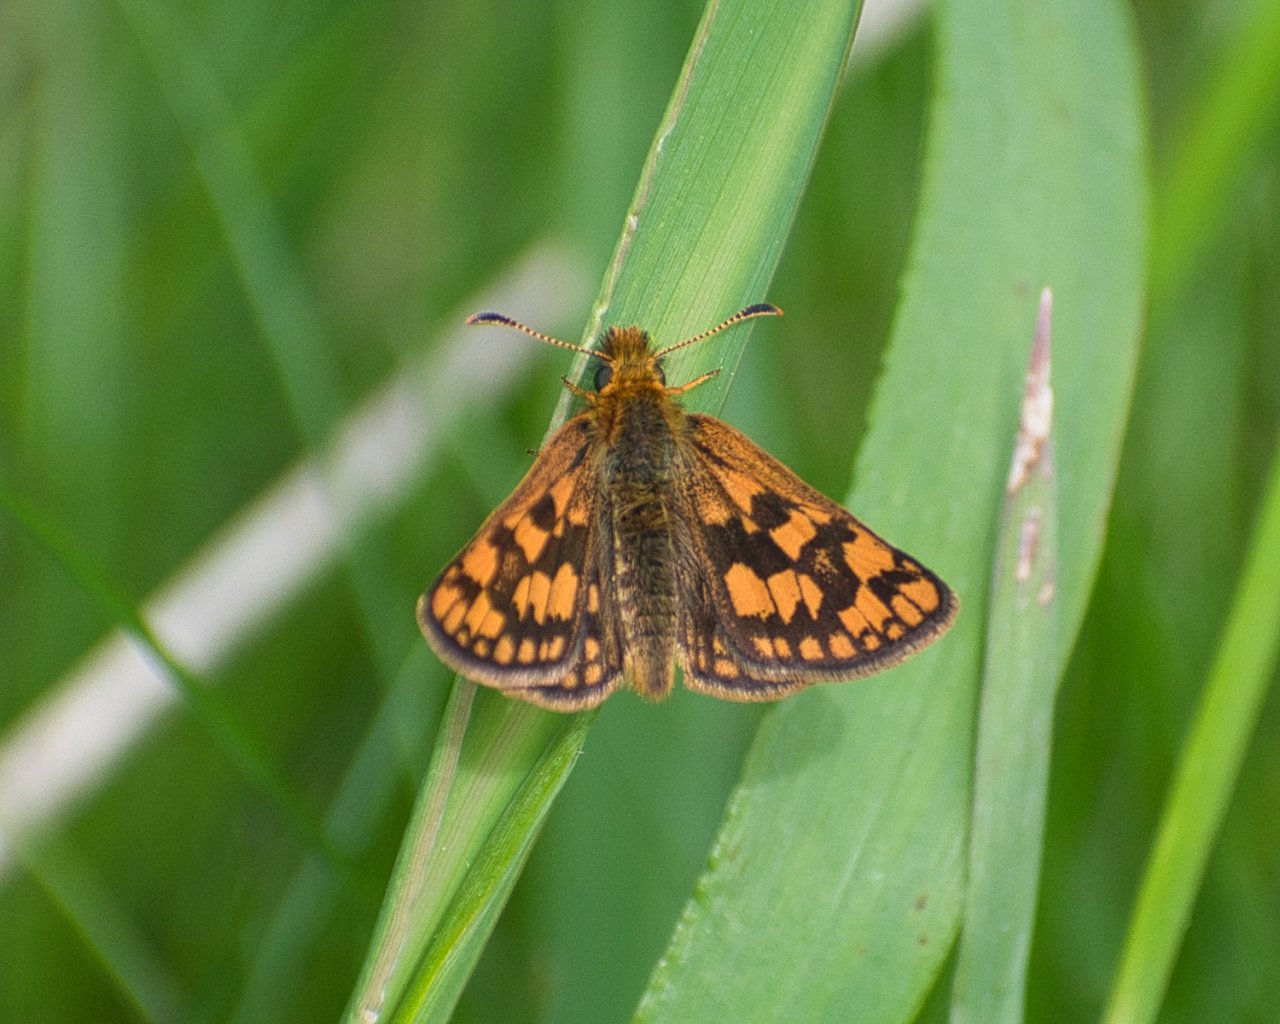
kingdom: Animalia
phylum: Arthropoda
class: Insecta
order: Lepidoptera
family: Hesperiidae
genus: Carterocephalus
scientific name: Carterocephalus palaemon
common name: Chequered Skipper
